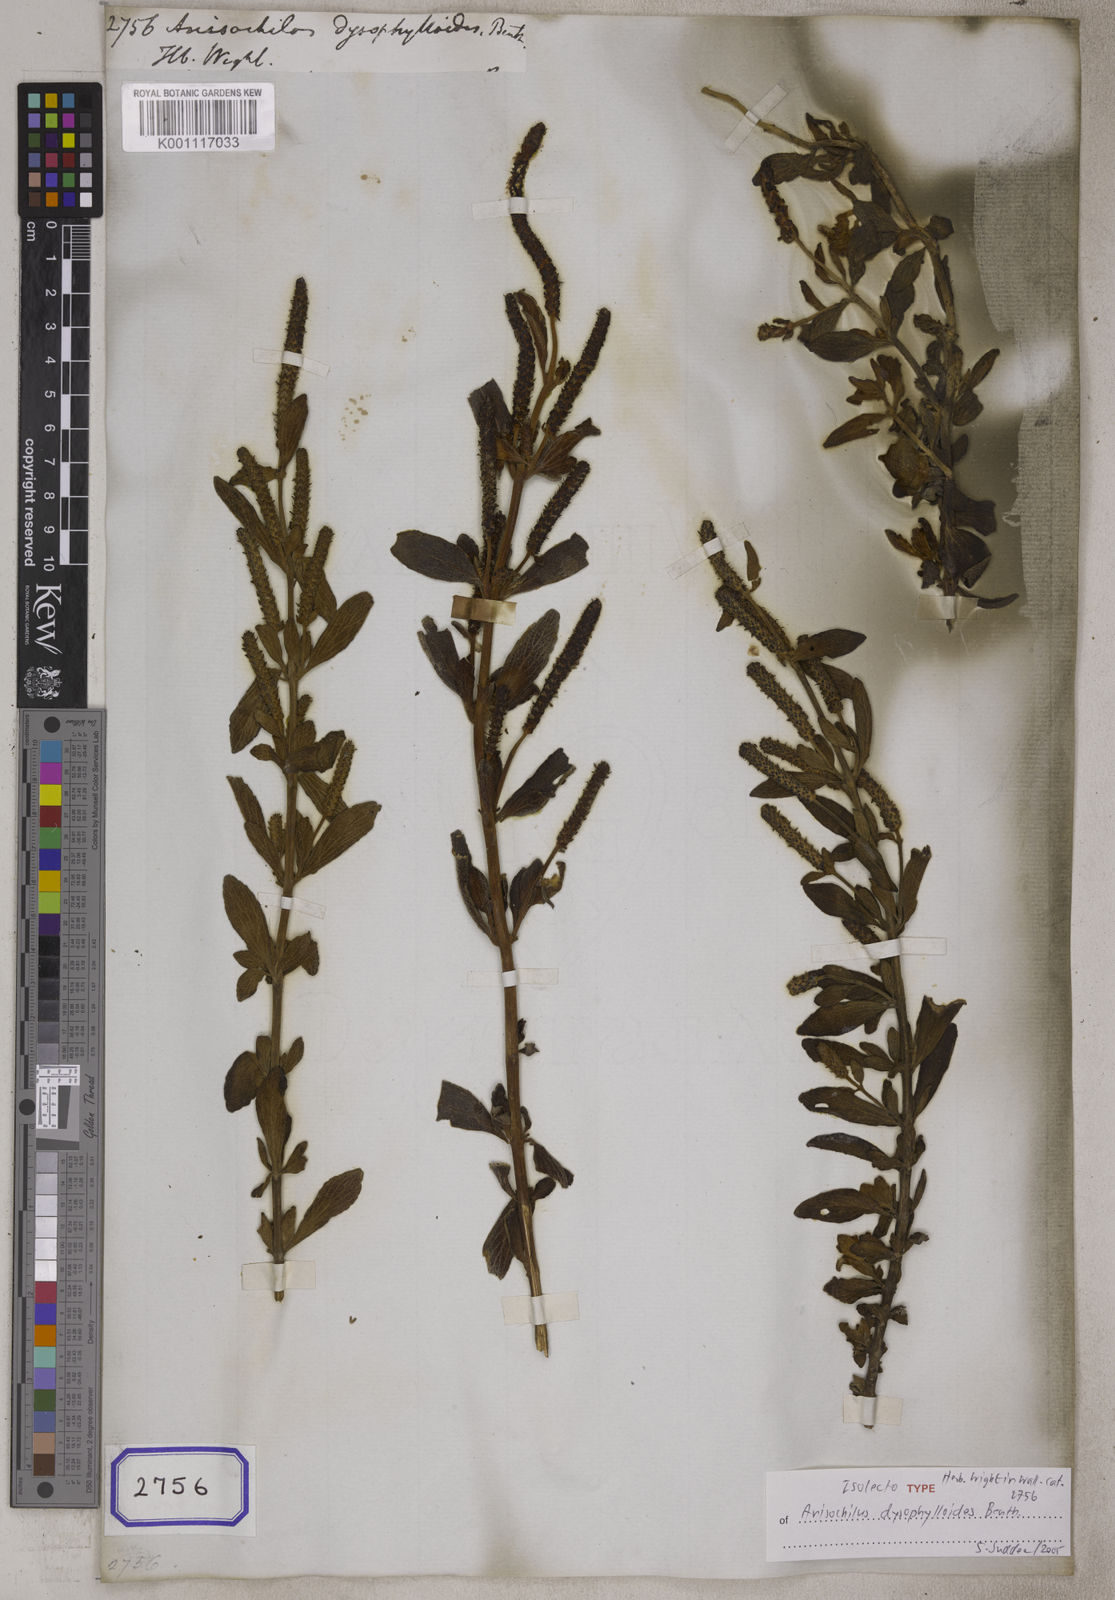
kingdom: Plantae
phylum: Tracheophyta
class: Magnoliopsida
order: Lamiales
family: Lamiaceae
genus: Coleus
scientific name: Coleus dysophylloides
